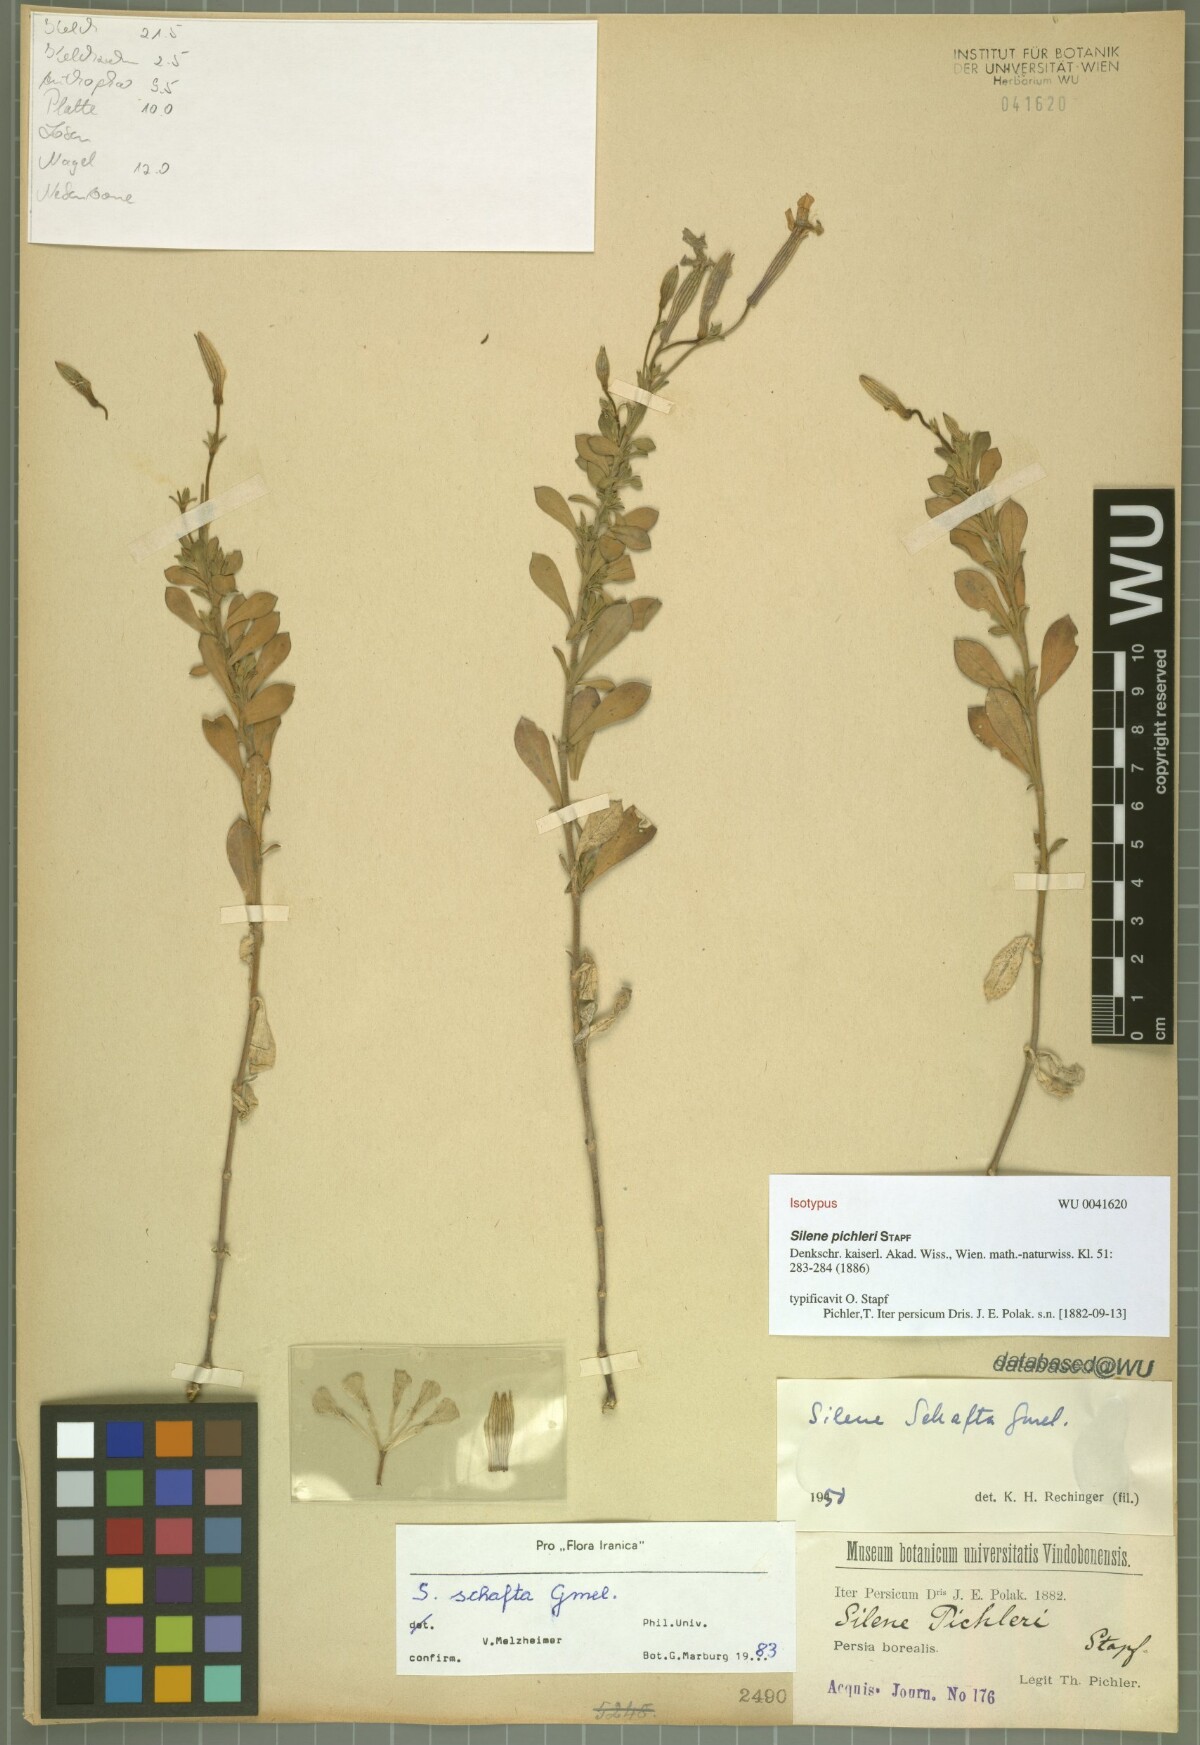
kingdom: Plantae
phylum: Tracheophyta
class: Magnoliopsida
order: Caryophyllales
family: Caryophyllaceae
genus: Silene
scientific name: Silene schafta
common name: Caucasian campion
